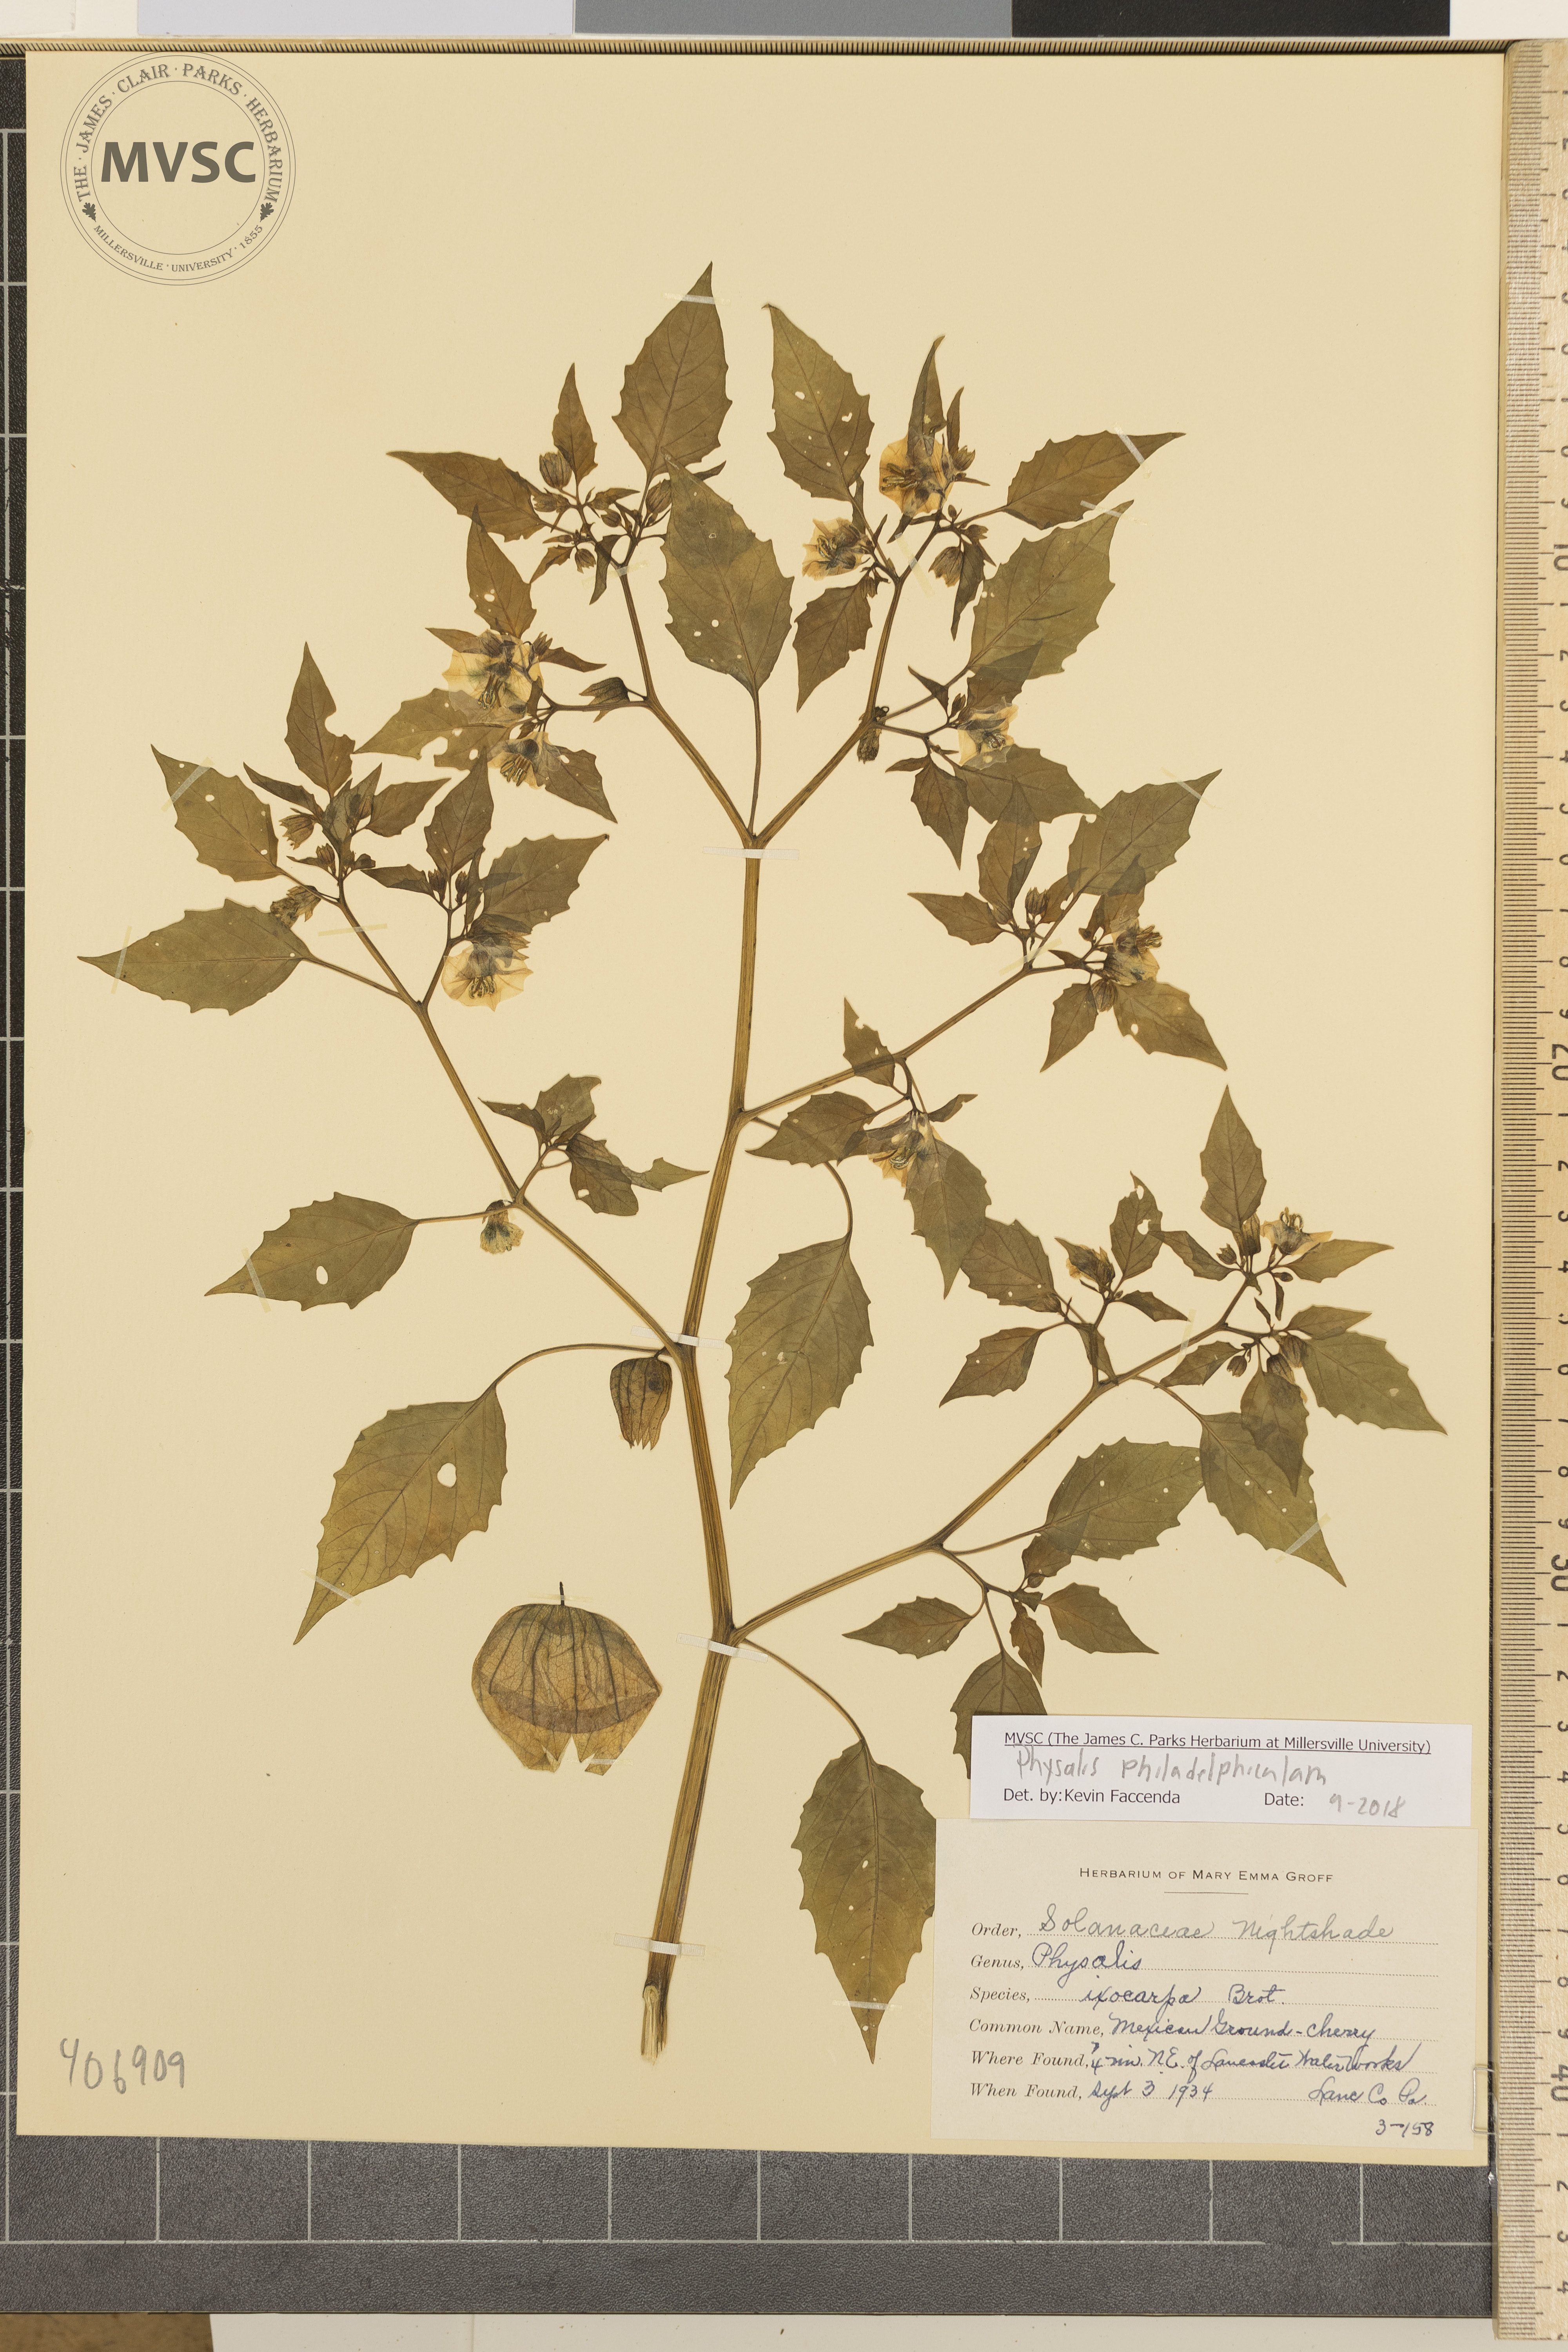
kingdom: Plantae
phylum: Tracheophyta
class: Magnoliopsida
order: Solanales
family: Solanaceae
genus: Physalis
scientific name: Physalis philadelphica
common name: Mexican Ground-Cherry
